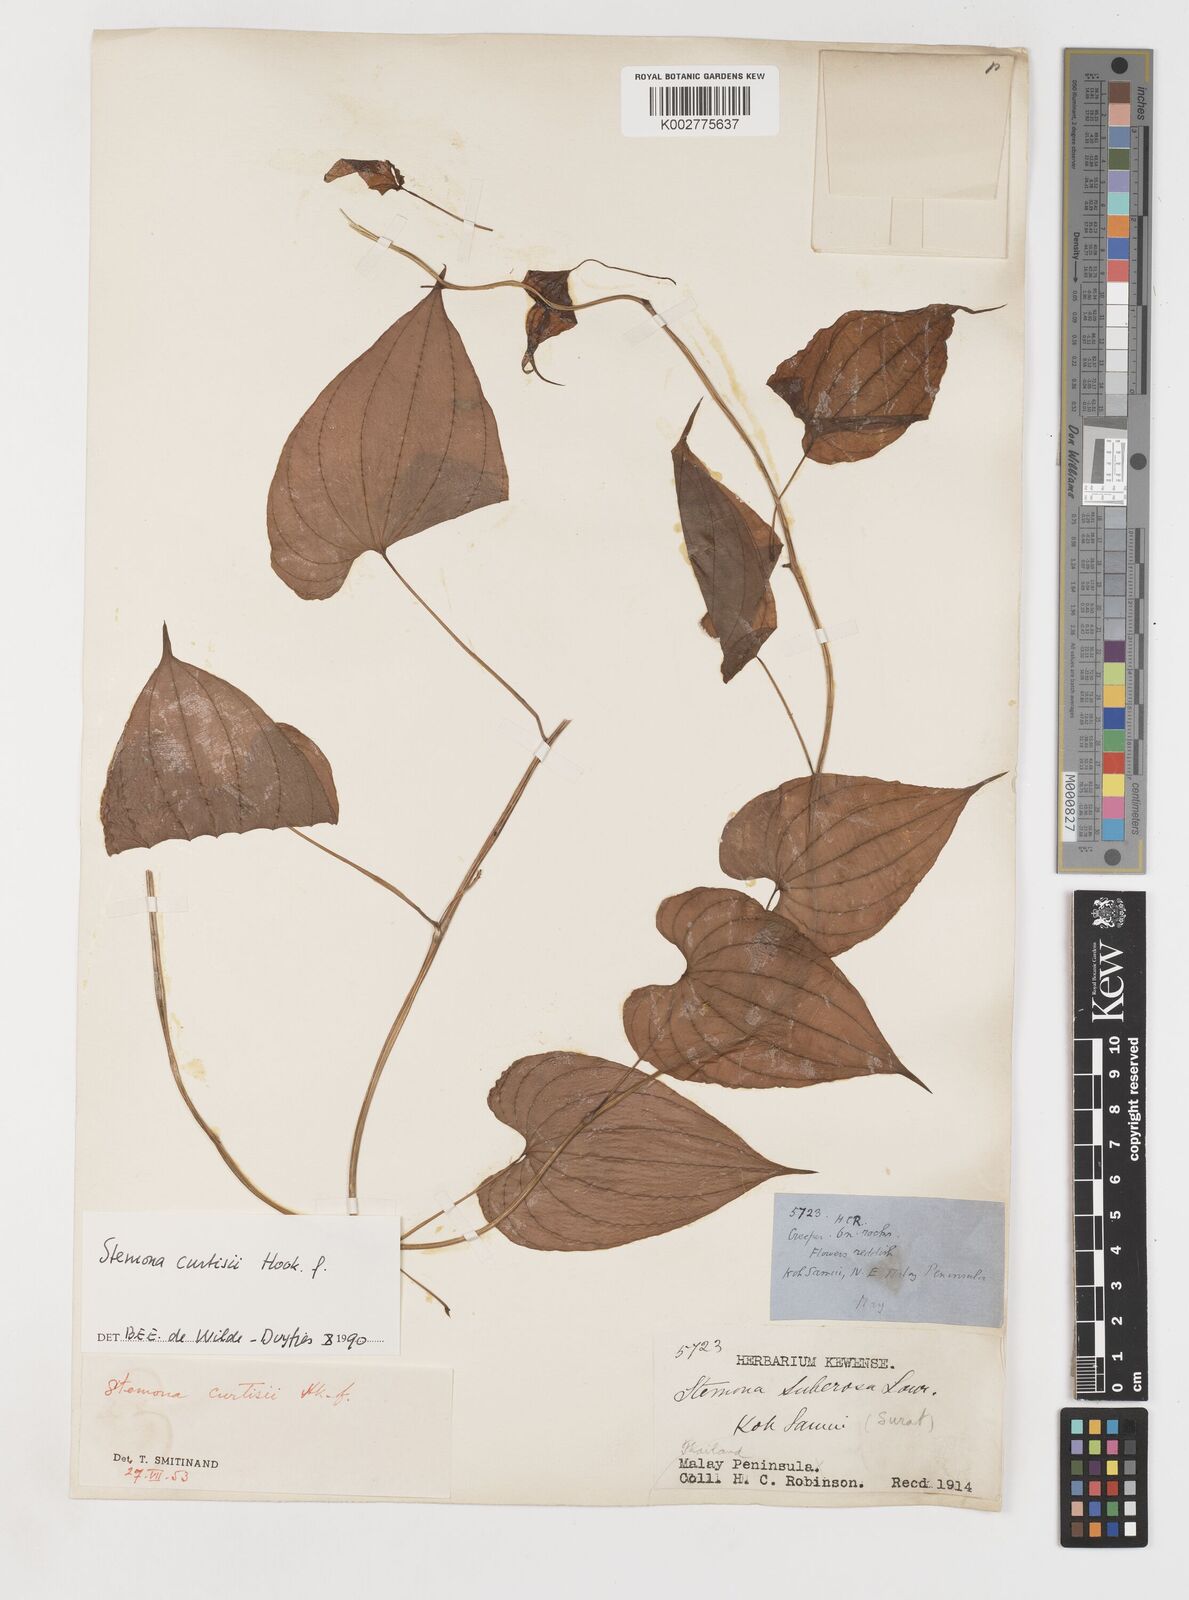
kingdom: Plantae
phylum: Tracheophyta
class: Liliopsida
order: Pandanales
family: Stemonaceae
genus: Stemona
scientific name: Stemona curtisii
